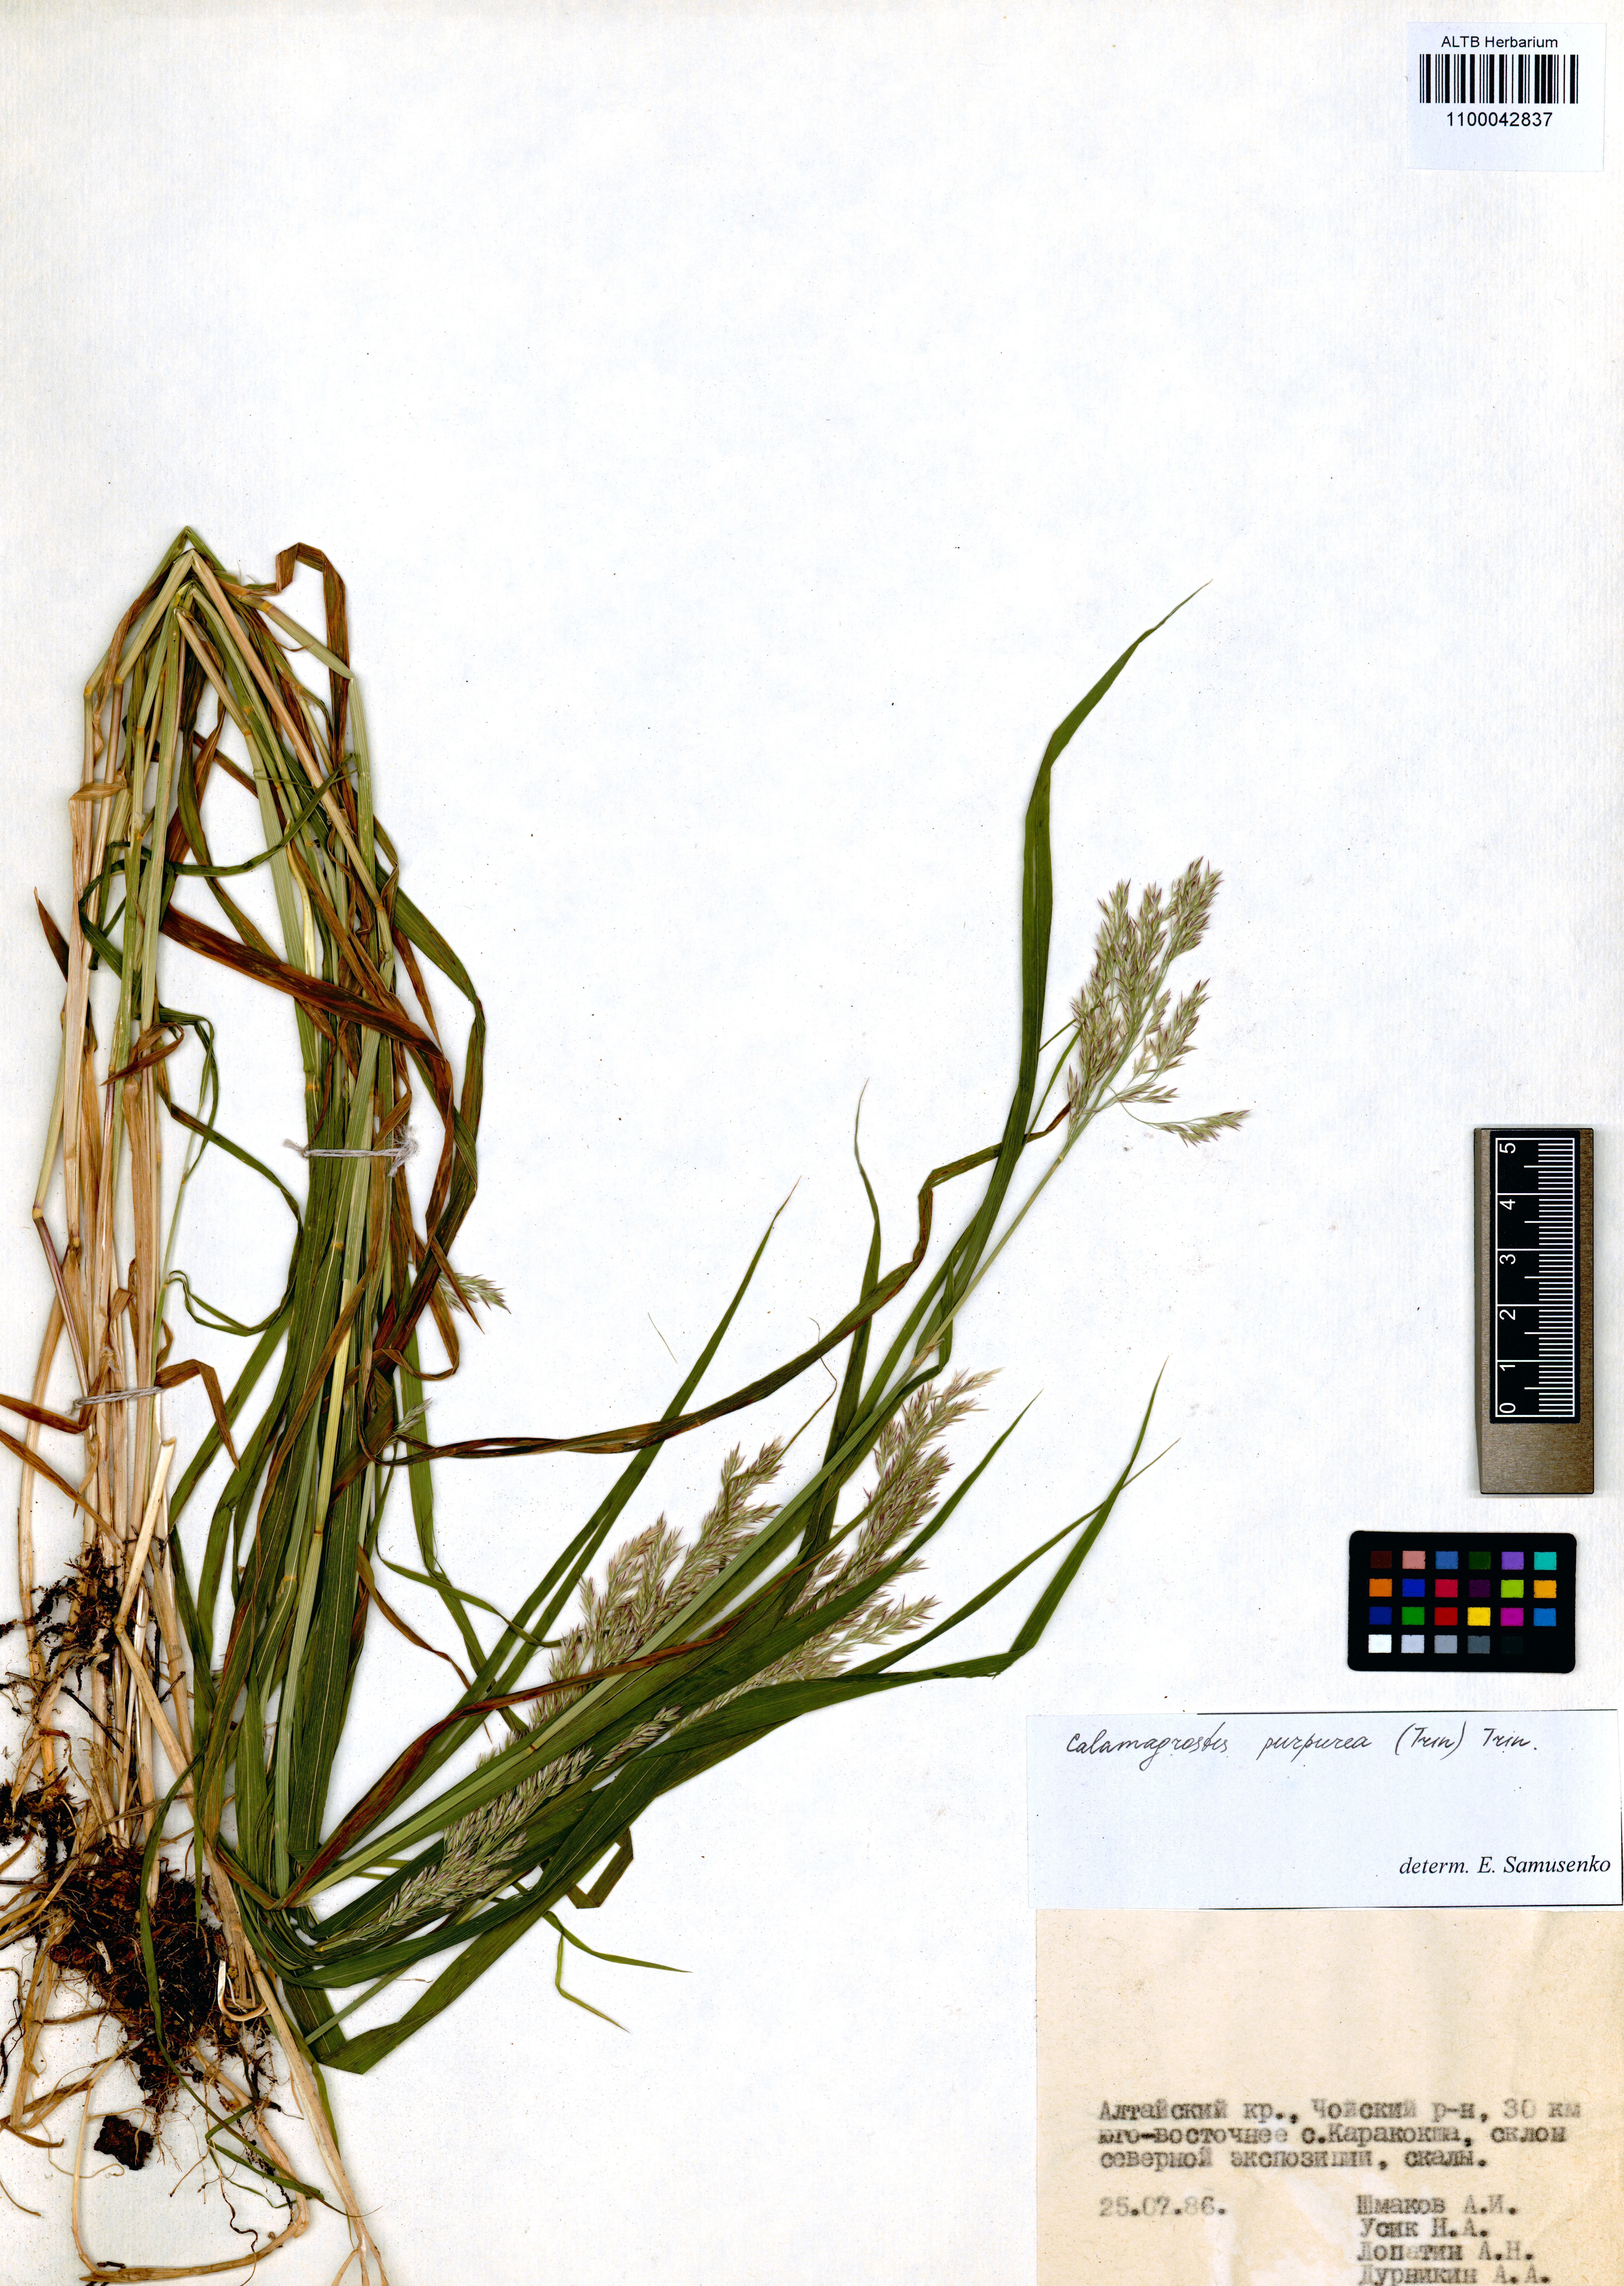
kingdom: Plantae
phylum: Tracheophyta
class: Liliopsida
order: Poales
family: Poaceae
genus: Calamagrostis
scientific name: Calamagrostis purpurea
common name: Scandinavian small-reed
